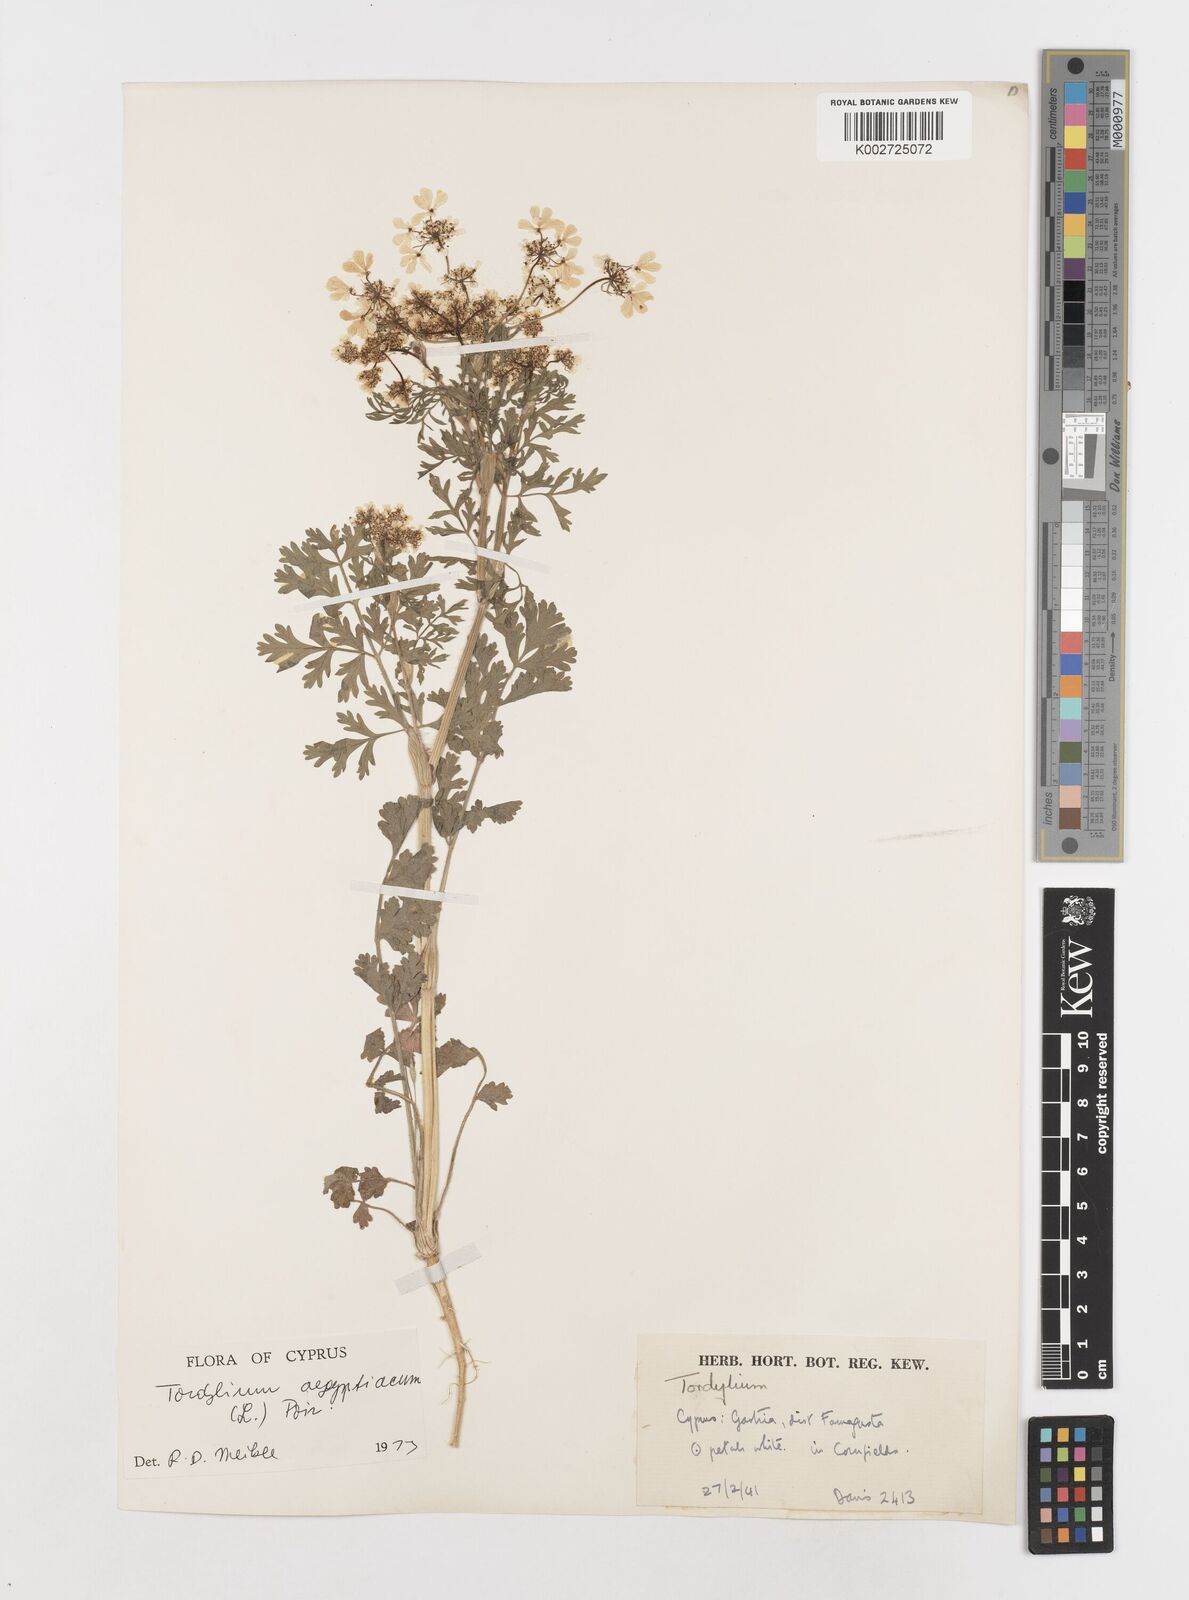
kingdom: Plantae
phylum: Tracheophyta
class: Magnoliopsida
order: Apiales
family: Apiaceae
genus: Tordylium
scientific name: Tordylium aegyptiacum
